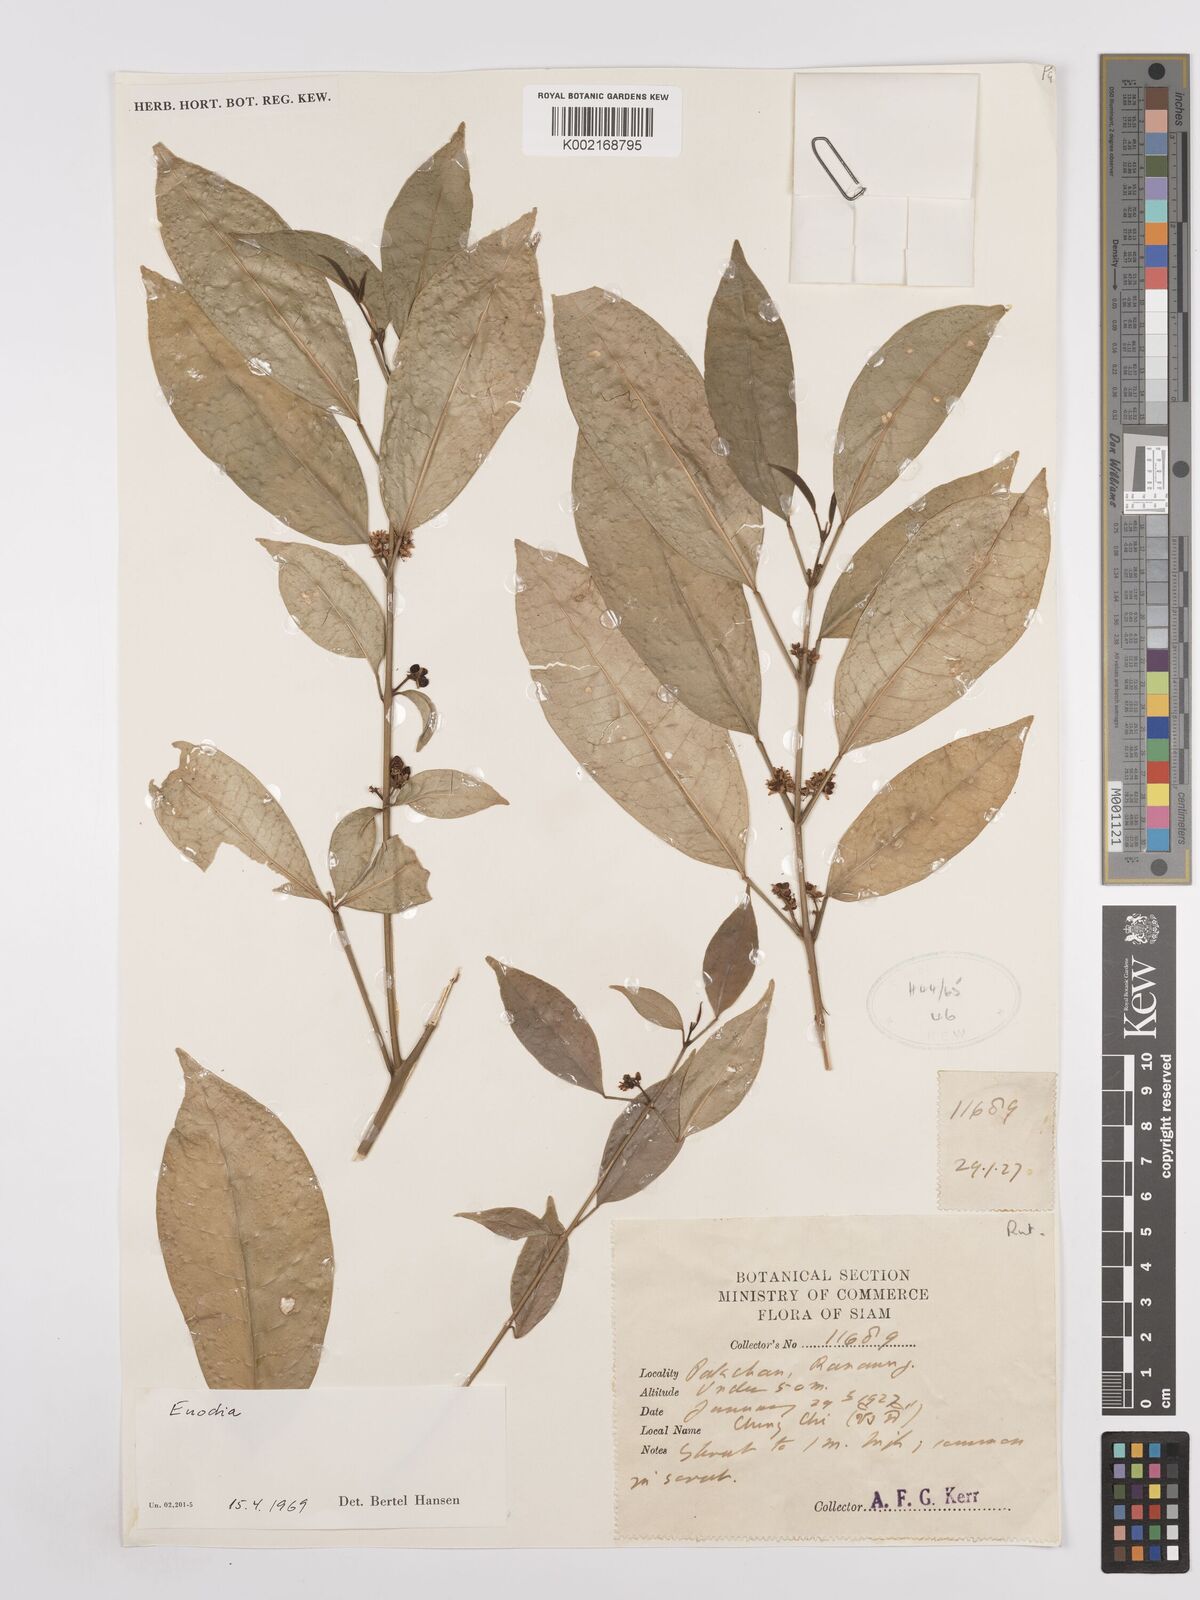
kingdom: Plantae
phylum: Tracheophyta
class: Magnoliopsida
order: Sapindales
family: Rutaceae
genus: Euodia
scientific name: Euodia
